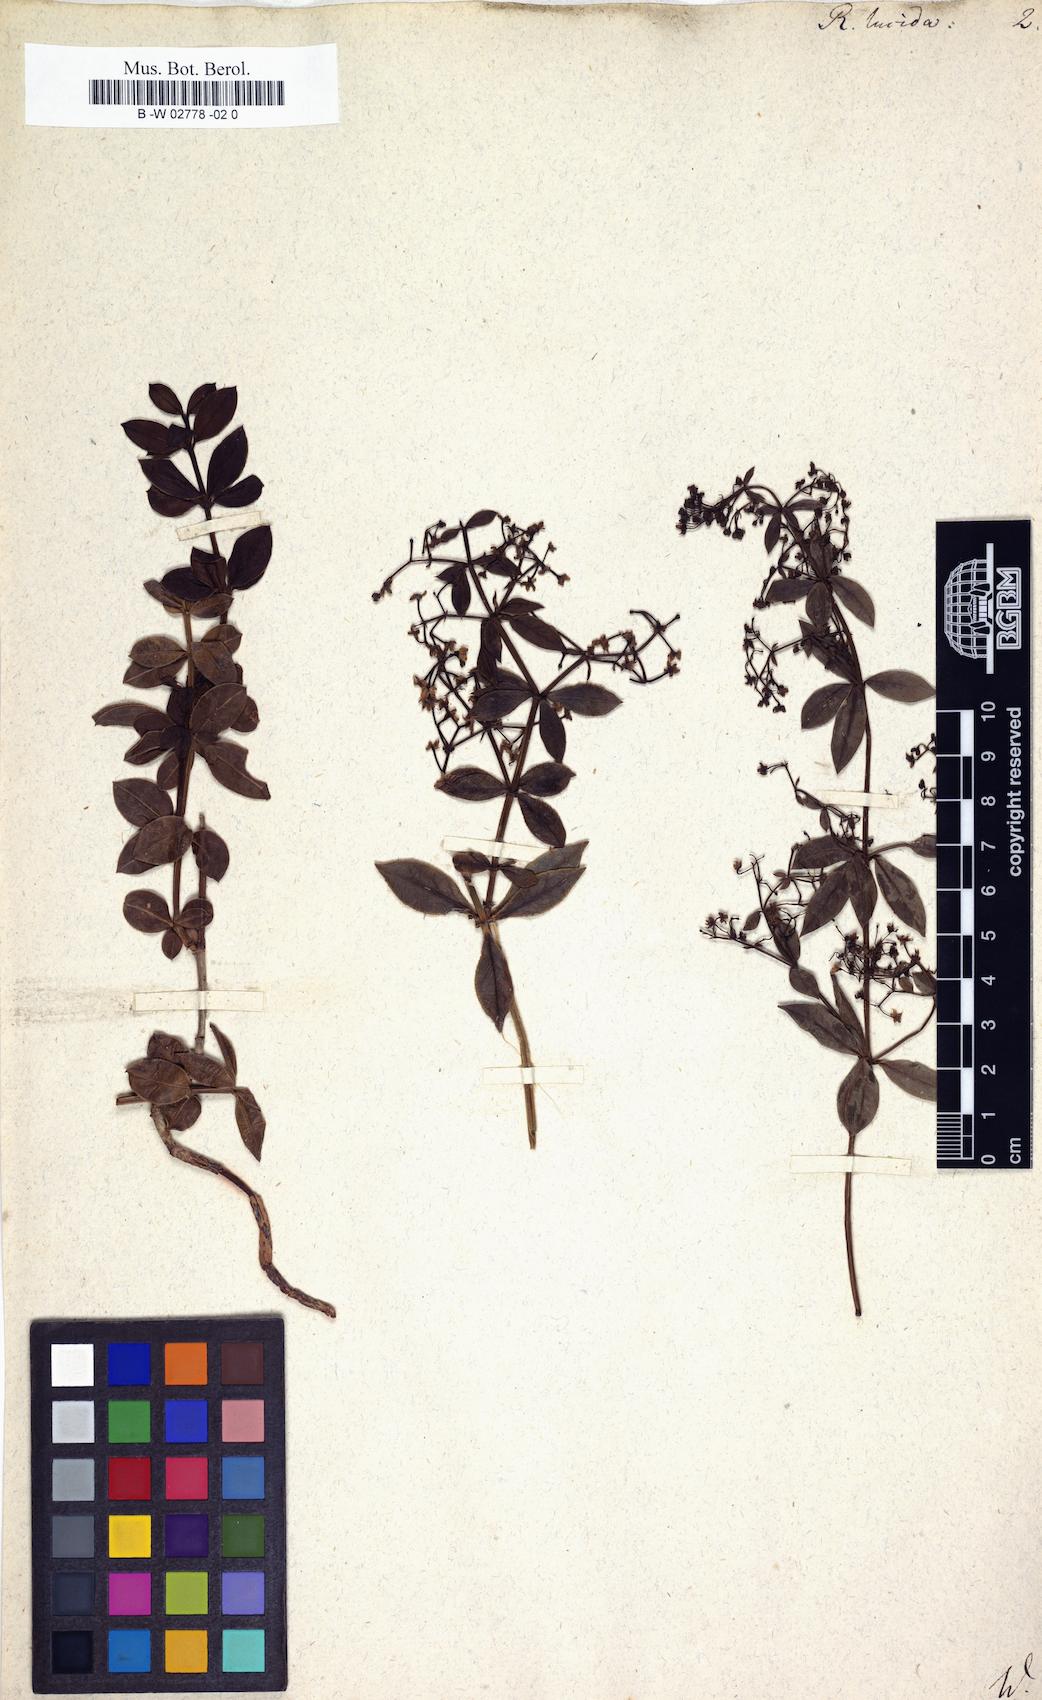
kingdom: Plantae
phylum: Tracheophyta
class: Magnoliopsida
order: Gentianales
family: Rubiaceae
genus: Rubia
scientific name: Rubia lucida
